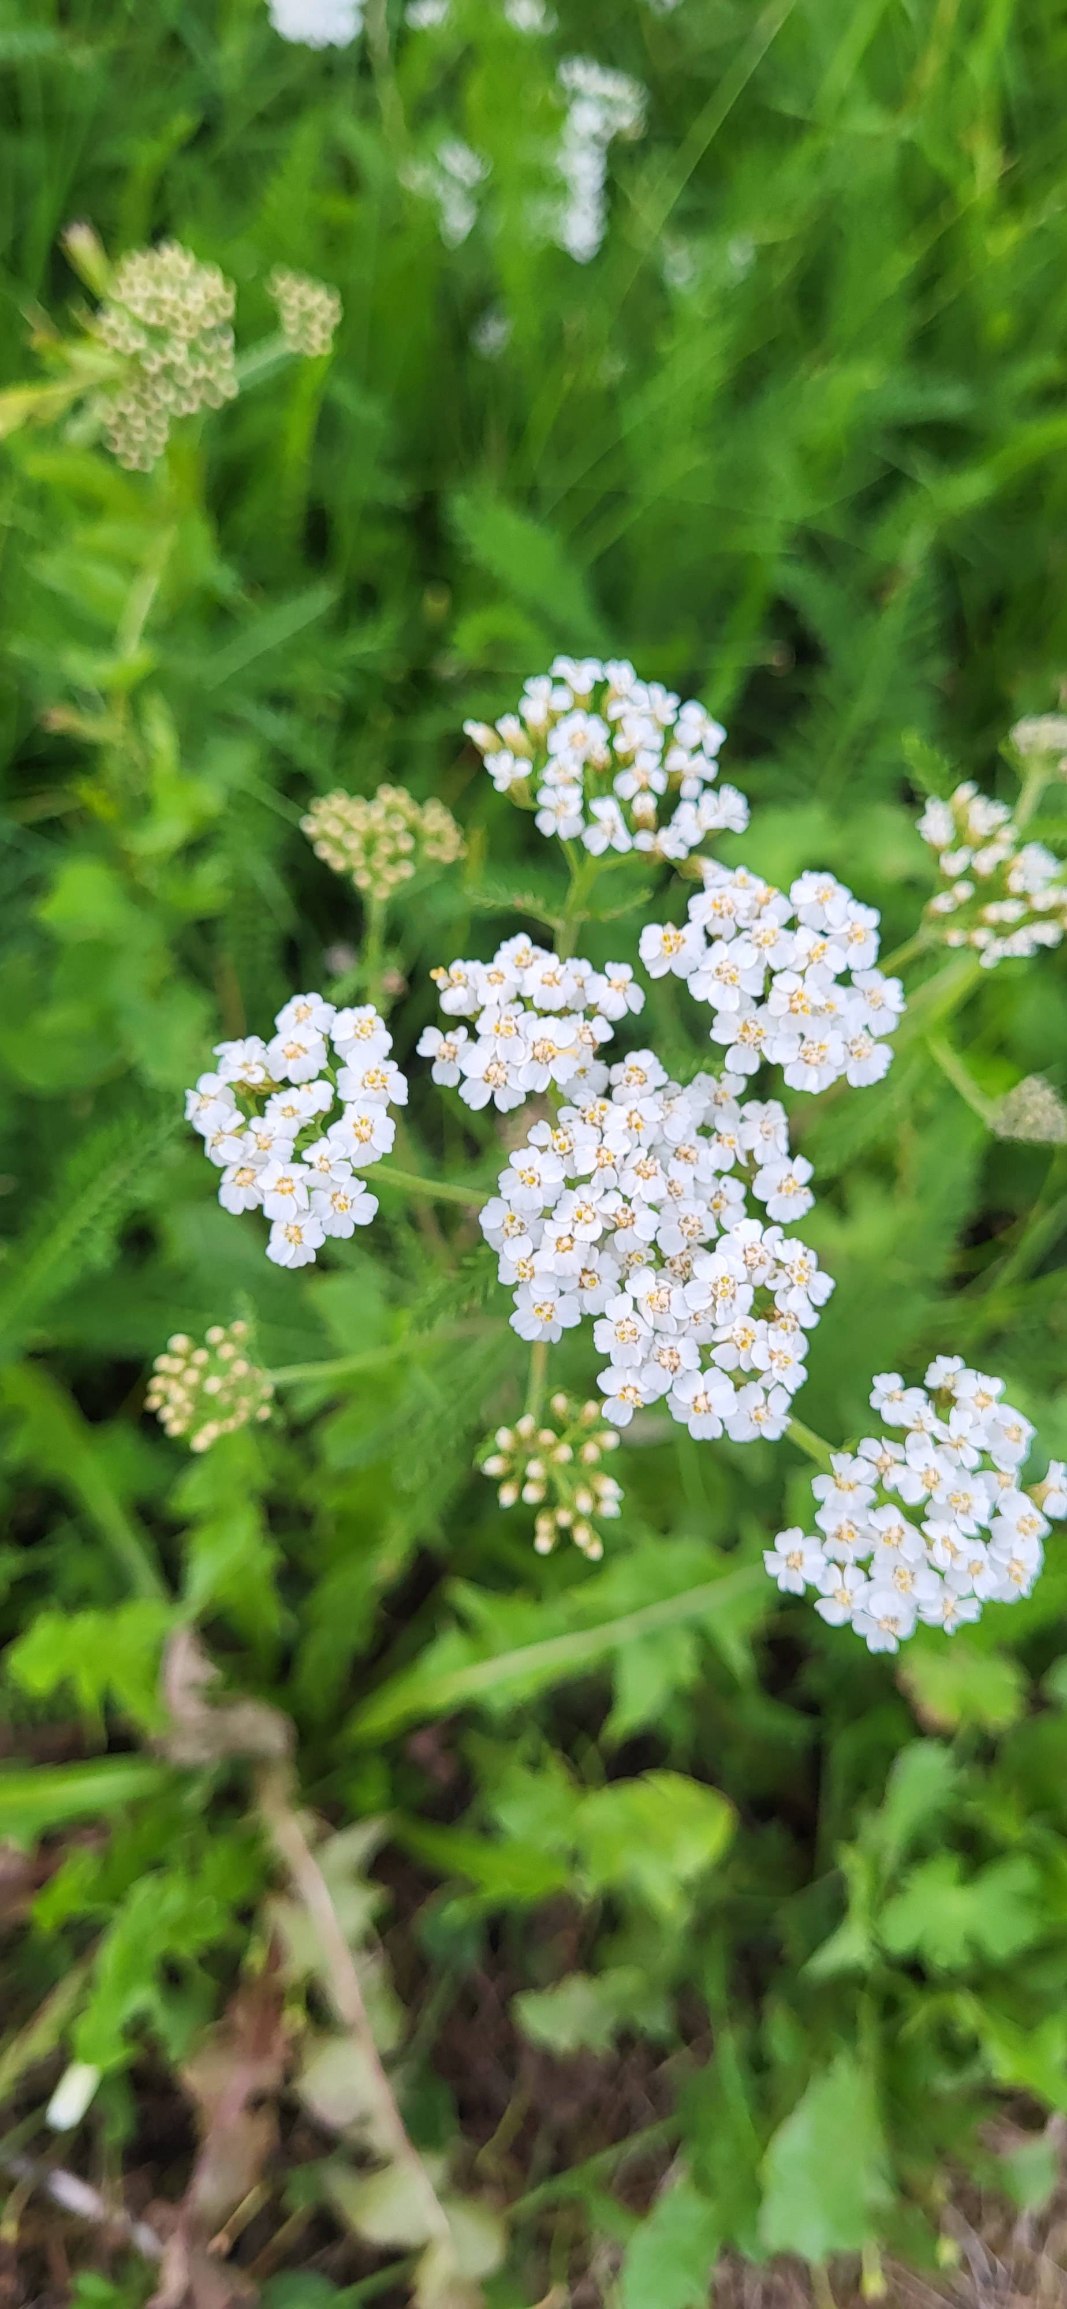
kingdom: Plantae
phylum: Tracheophyta
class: Magnoliopsida
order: Asterales
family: Asteraceae
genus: Achillea
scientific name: Achillea millefolium
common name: Almindelig røllike
